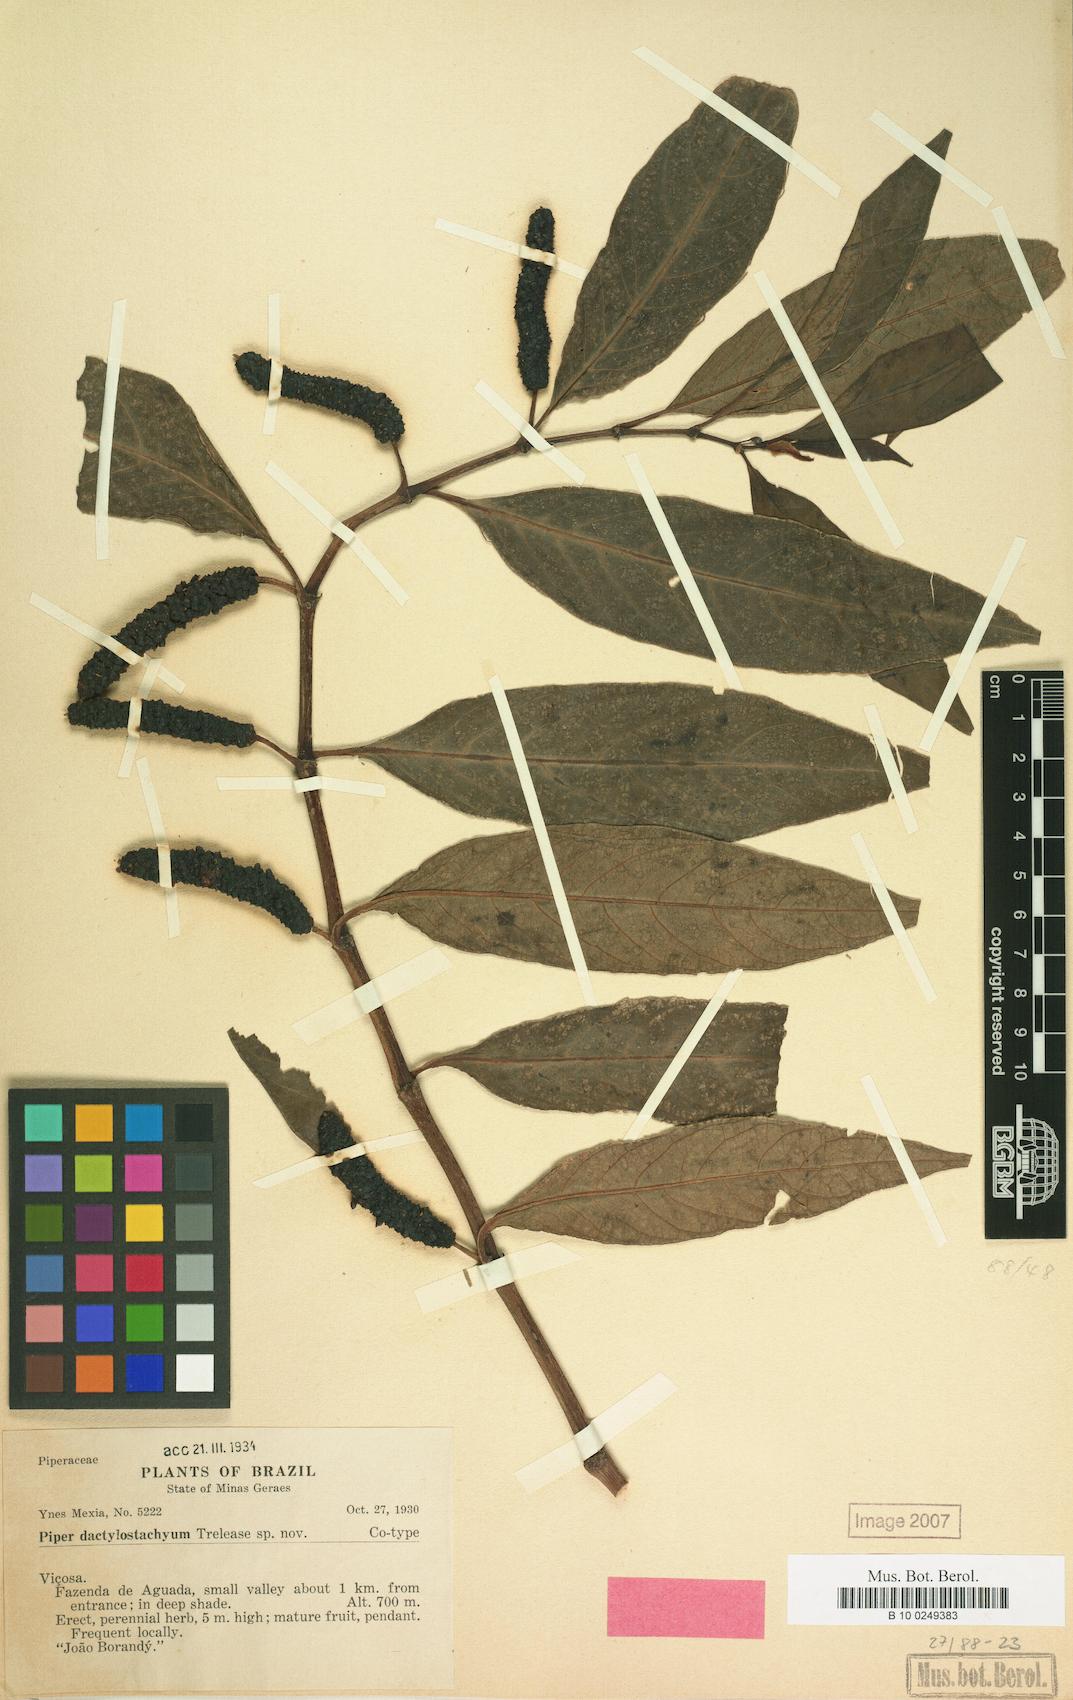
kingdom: Plantae
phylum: Tracheophyta
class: Magnoliopsida
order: Piperales
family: Piperaceae
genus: Piper
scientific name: Piper
